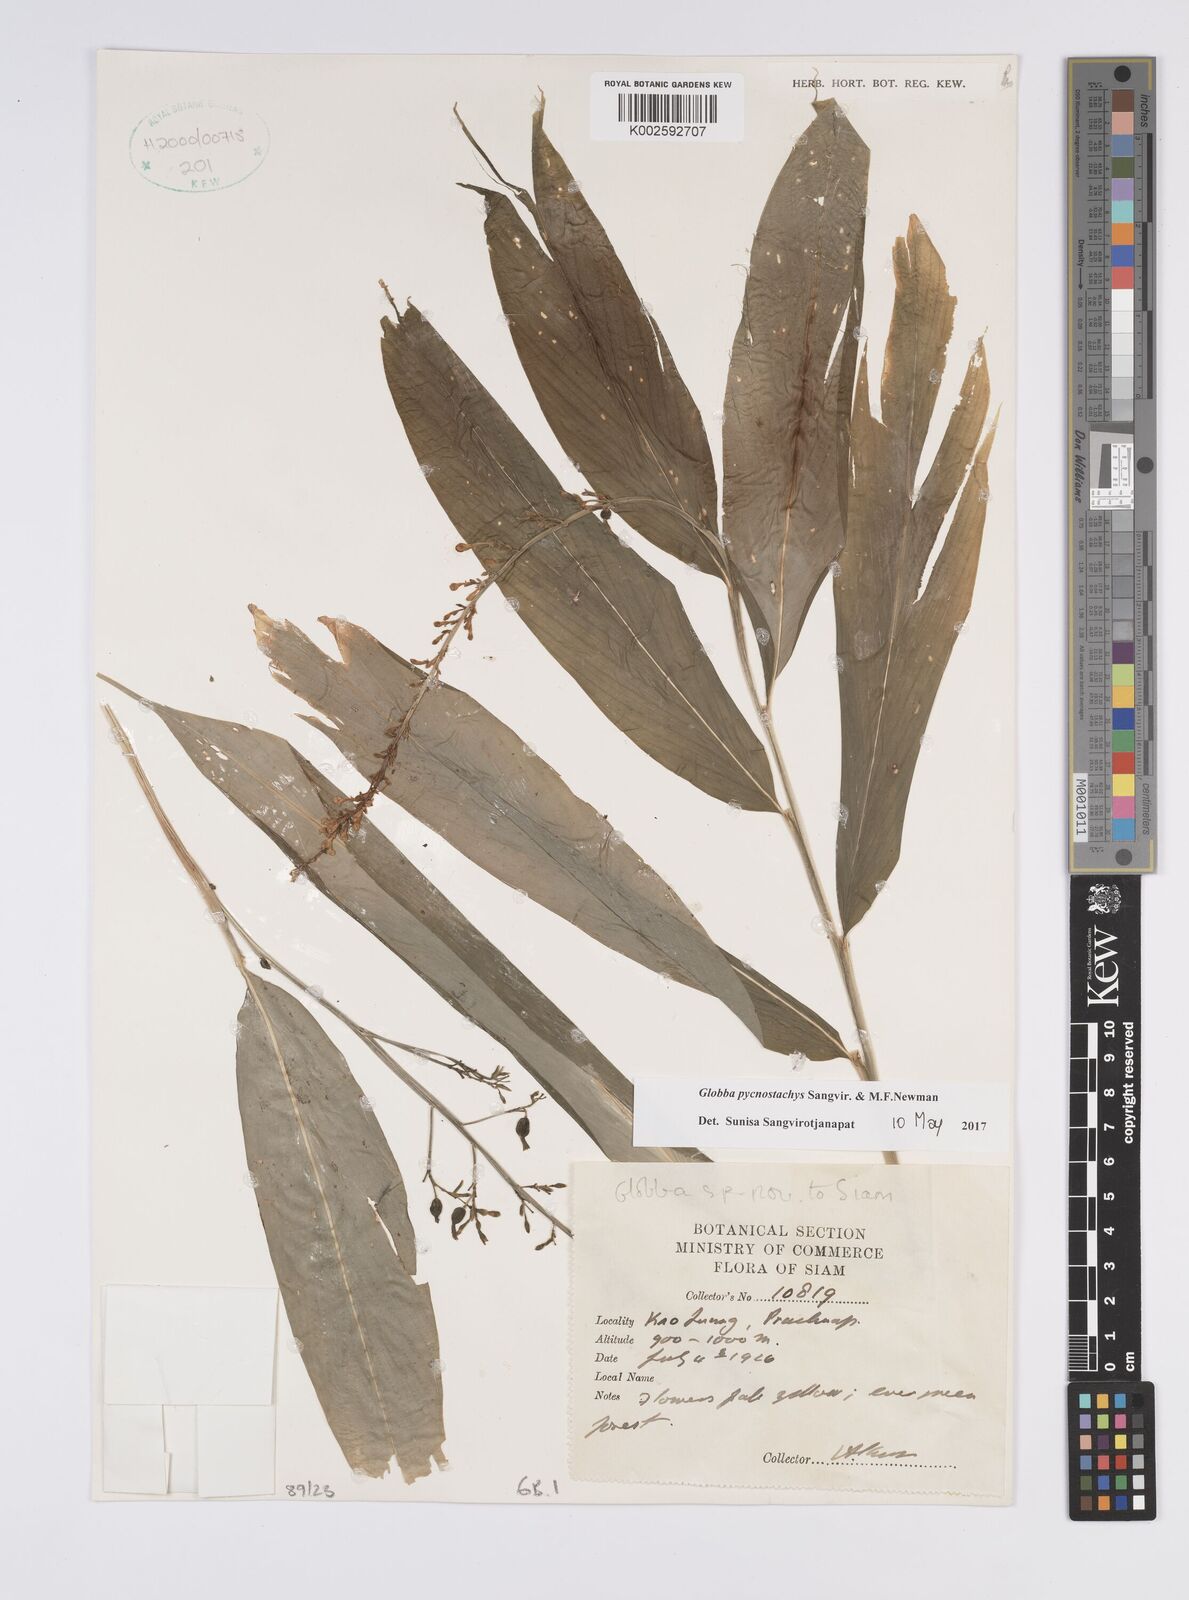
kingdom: Plantae
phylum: Tracheophyta
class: Liliopsida
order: Zingiberales
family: Zingiberaceae
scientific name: Zingiberaceae
